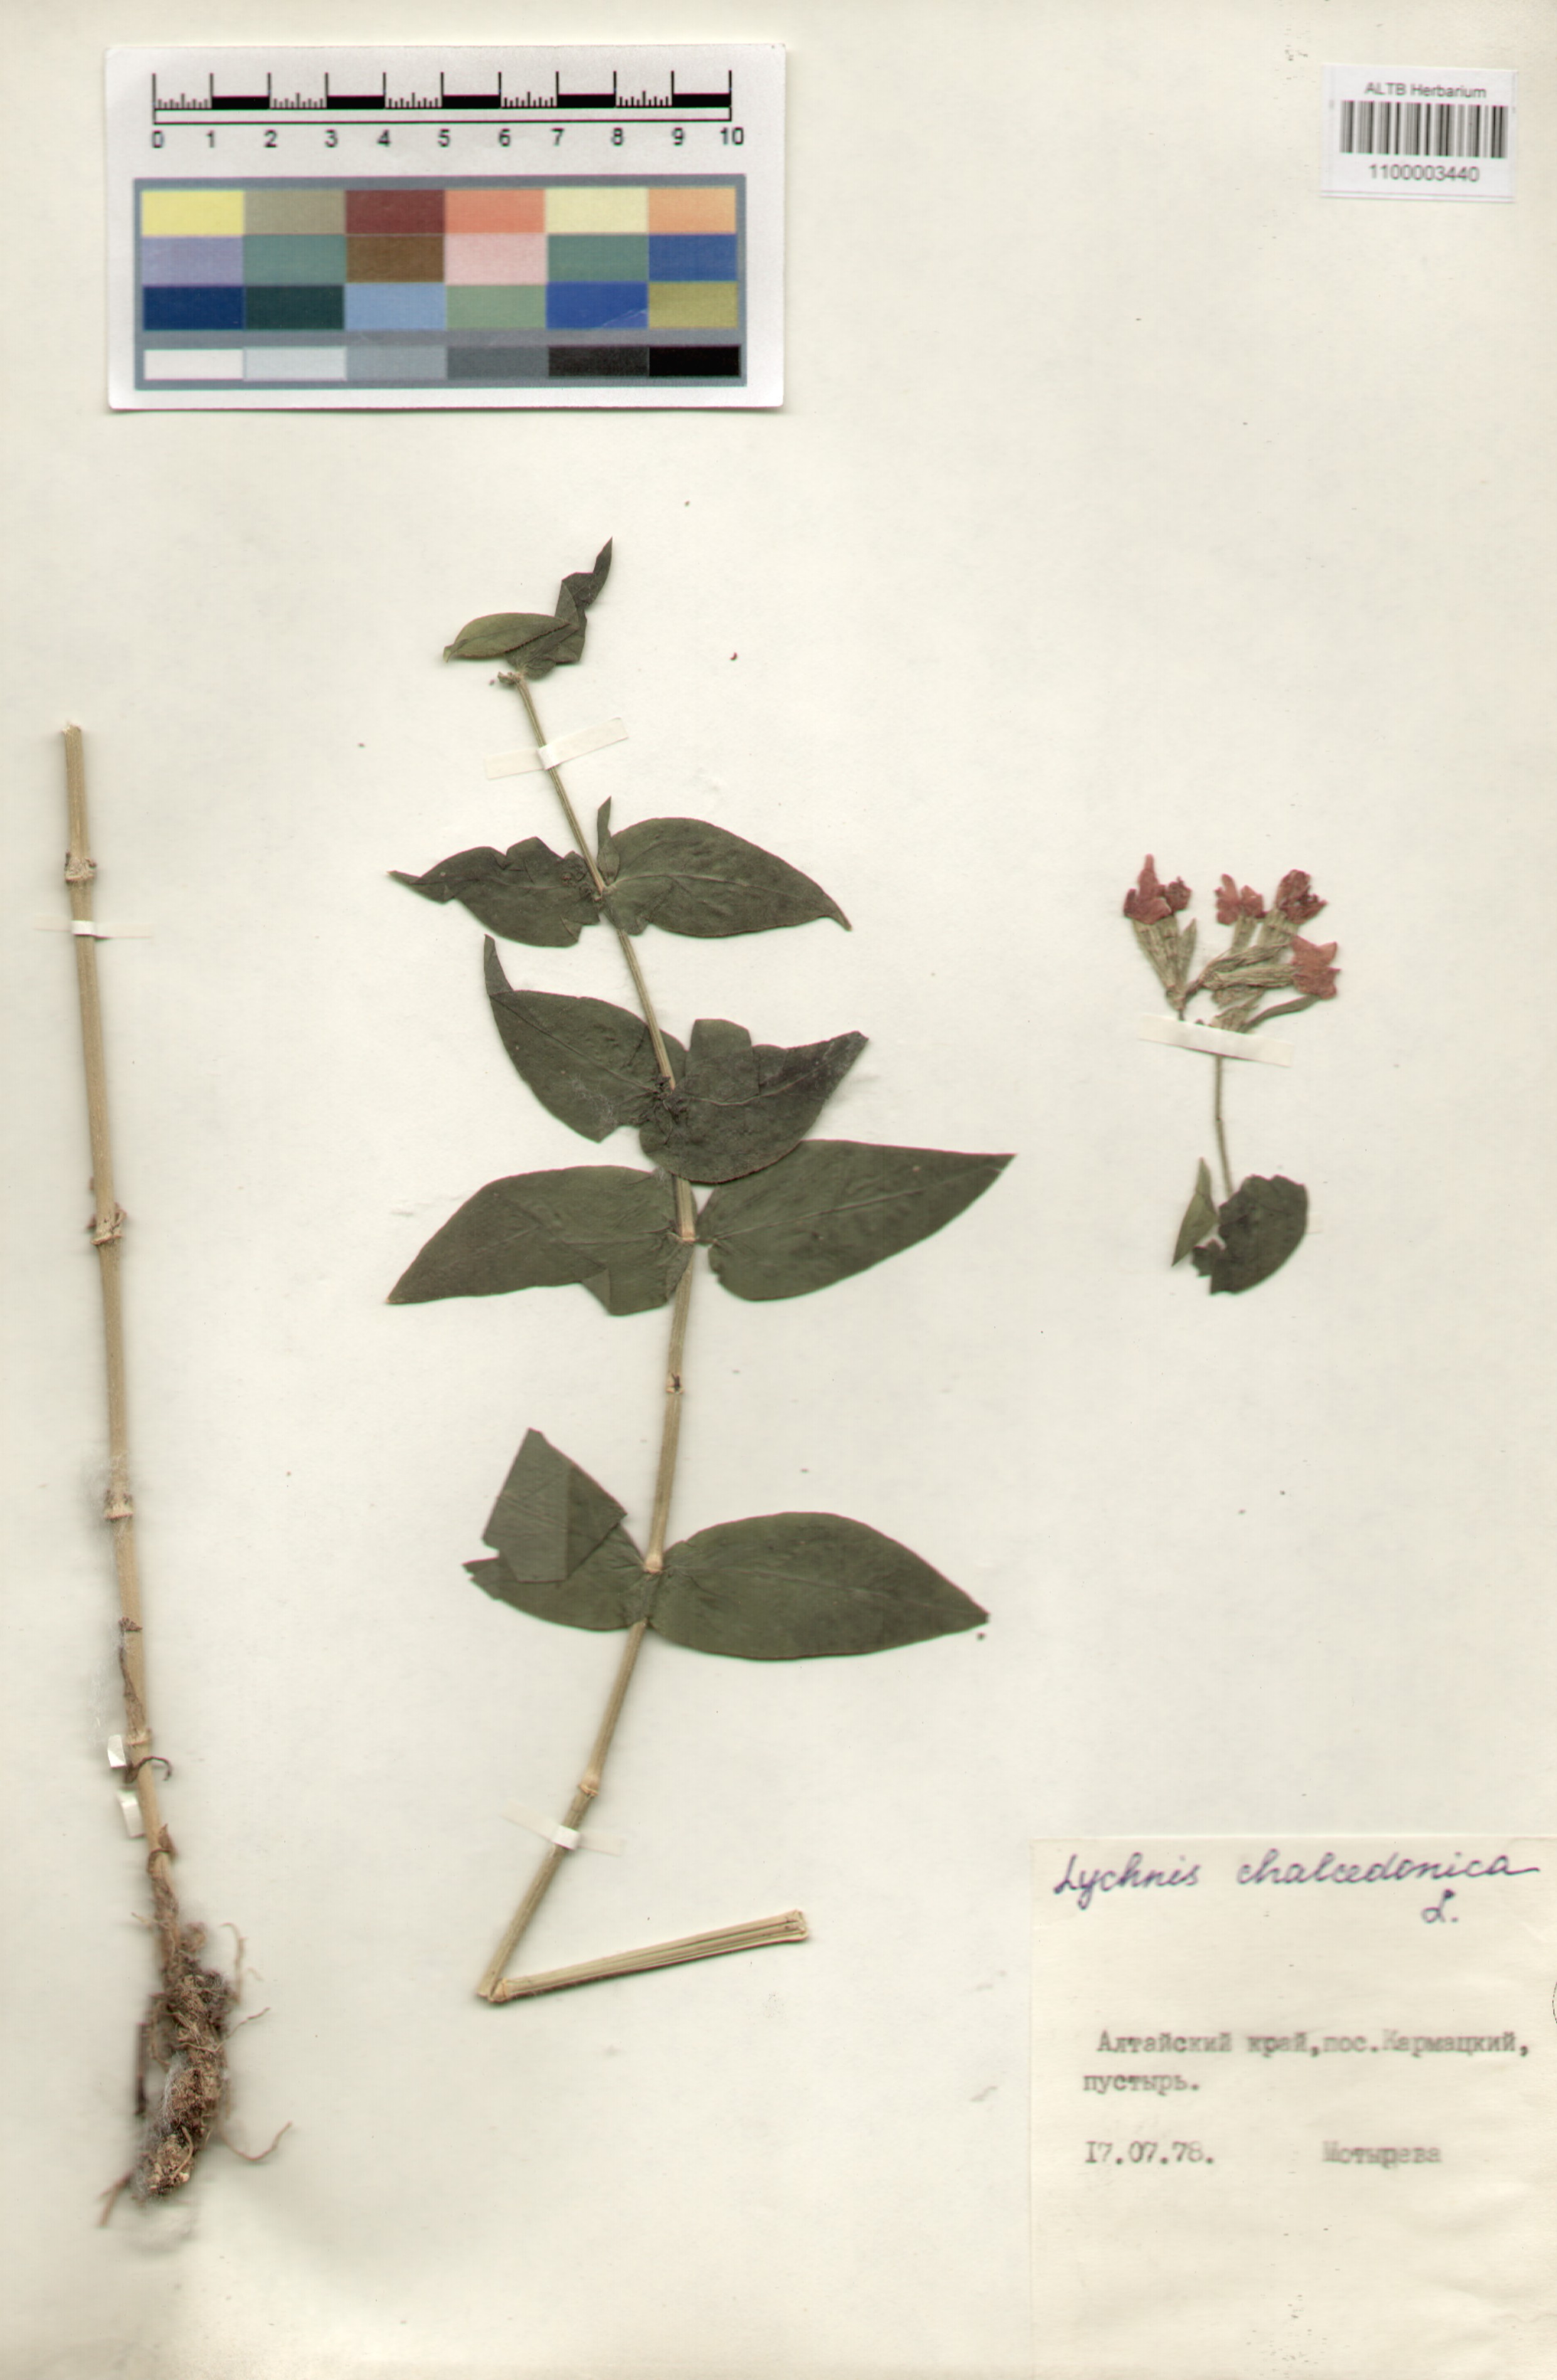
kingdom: Plantae
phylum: Tracheophyta
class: Magnoliopsida
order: Caryophyllales
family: Caryophyllaceae
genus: Silene
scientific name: Silene chalcedonica
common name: Maltese-cross
